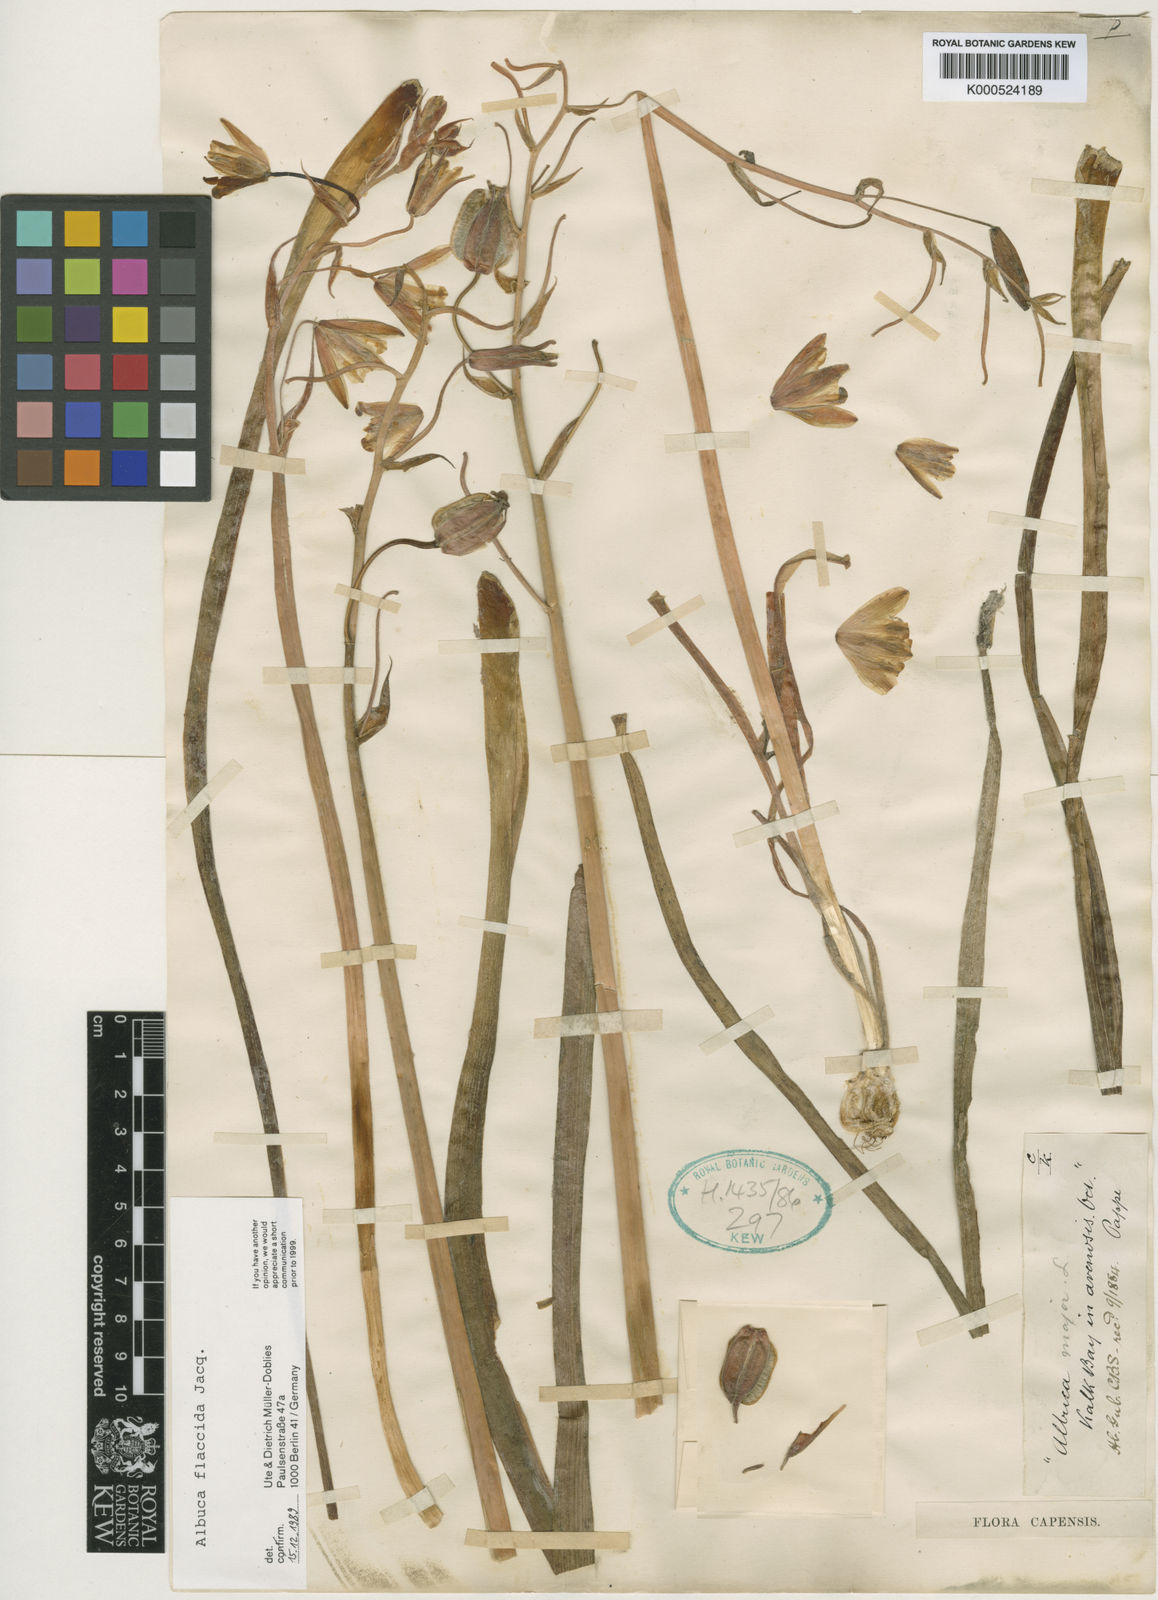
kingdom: Plantae
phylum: Tracheophyta
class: Liliopsida
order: Asparagales
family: Asparagaceae
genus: Albuca
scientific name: Albuca flaccida
